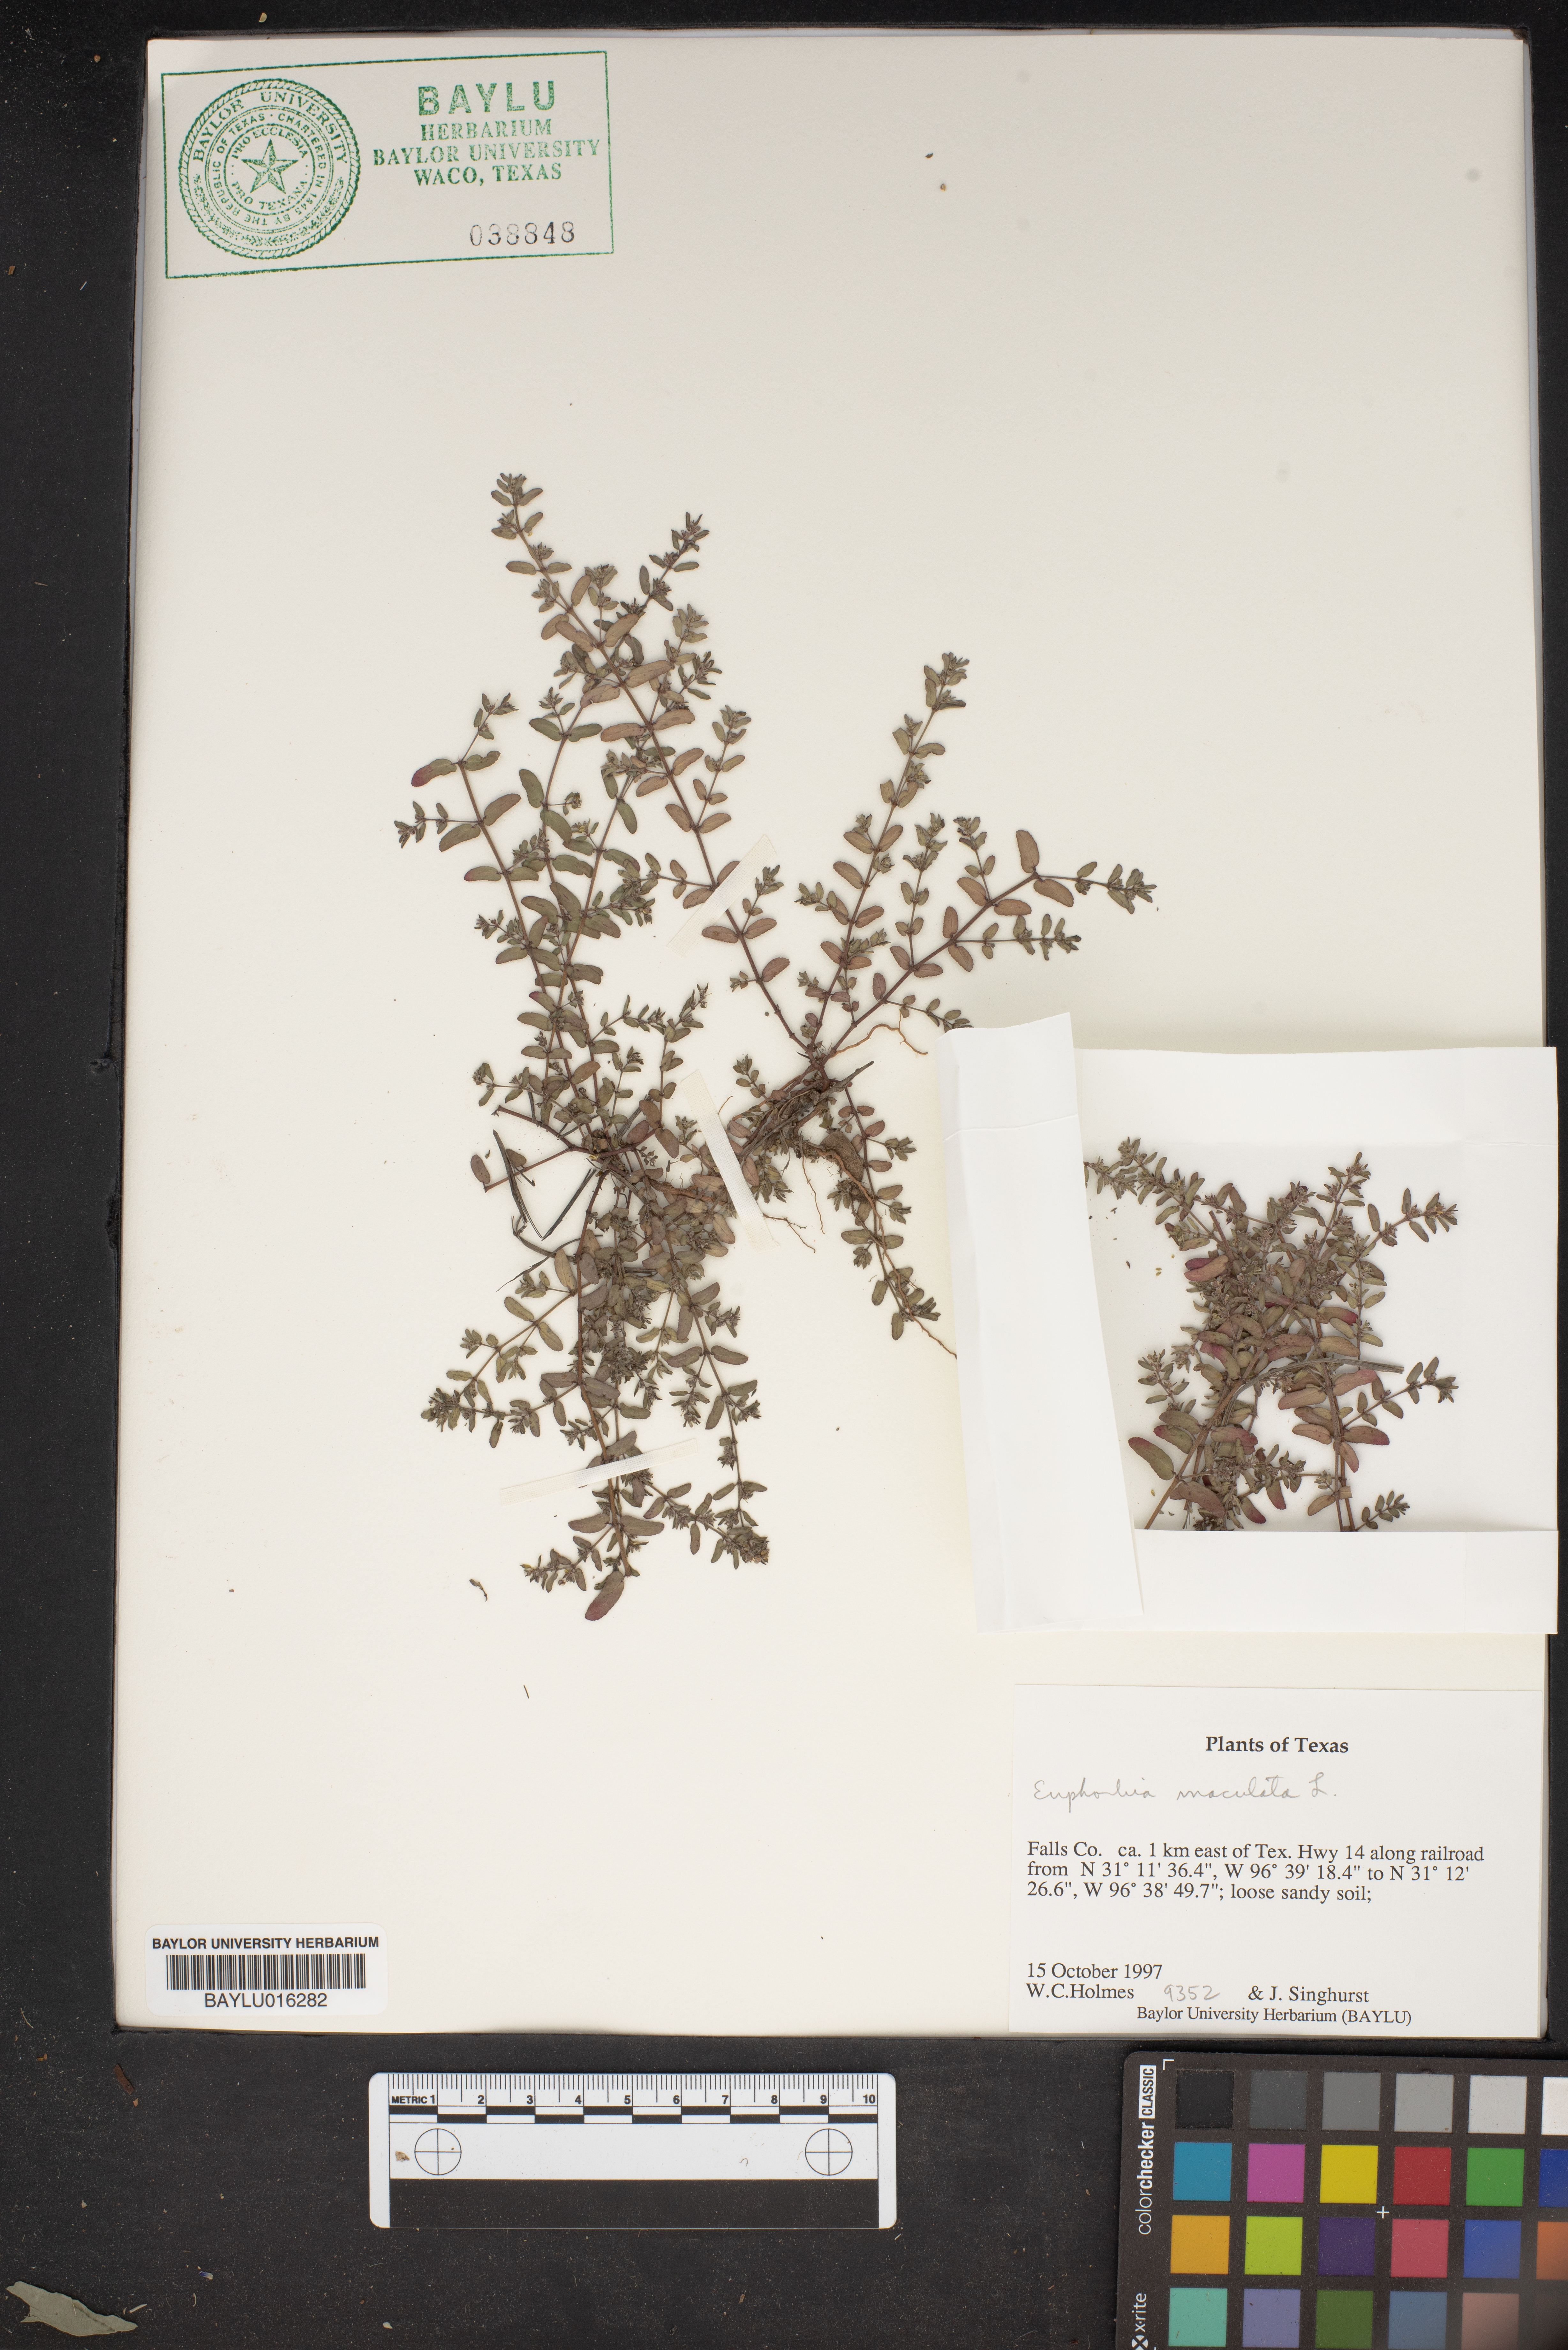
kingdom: Plantae
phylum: Tracheophyta
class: Magnoliopsida
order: Malpighiales
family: Euphorbiaceae
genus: Euphorbia
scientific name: Euphorbia maculata
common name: Spotted spurge
